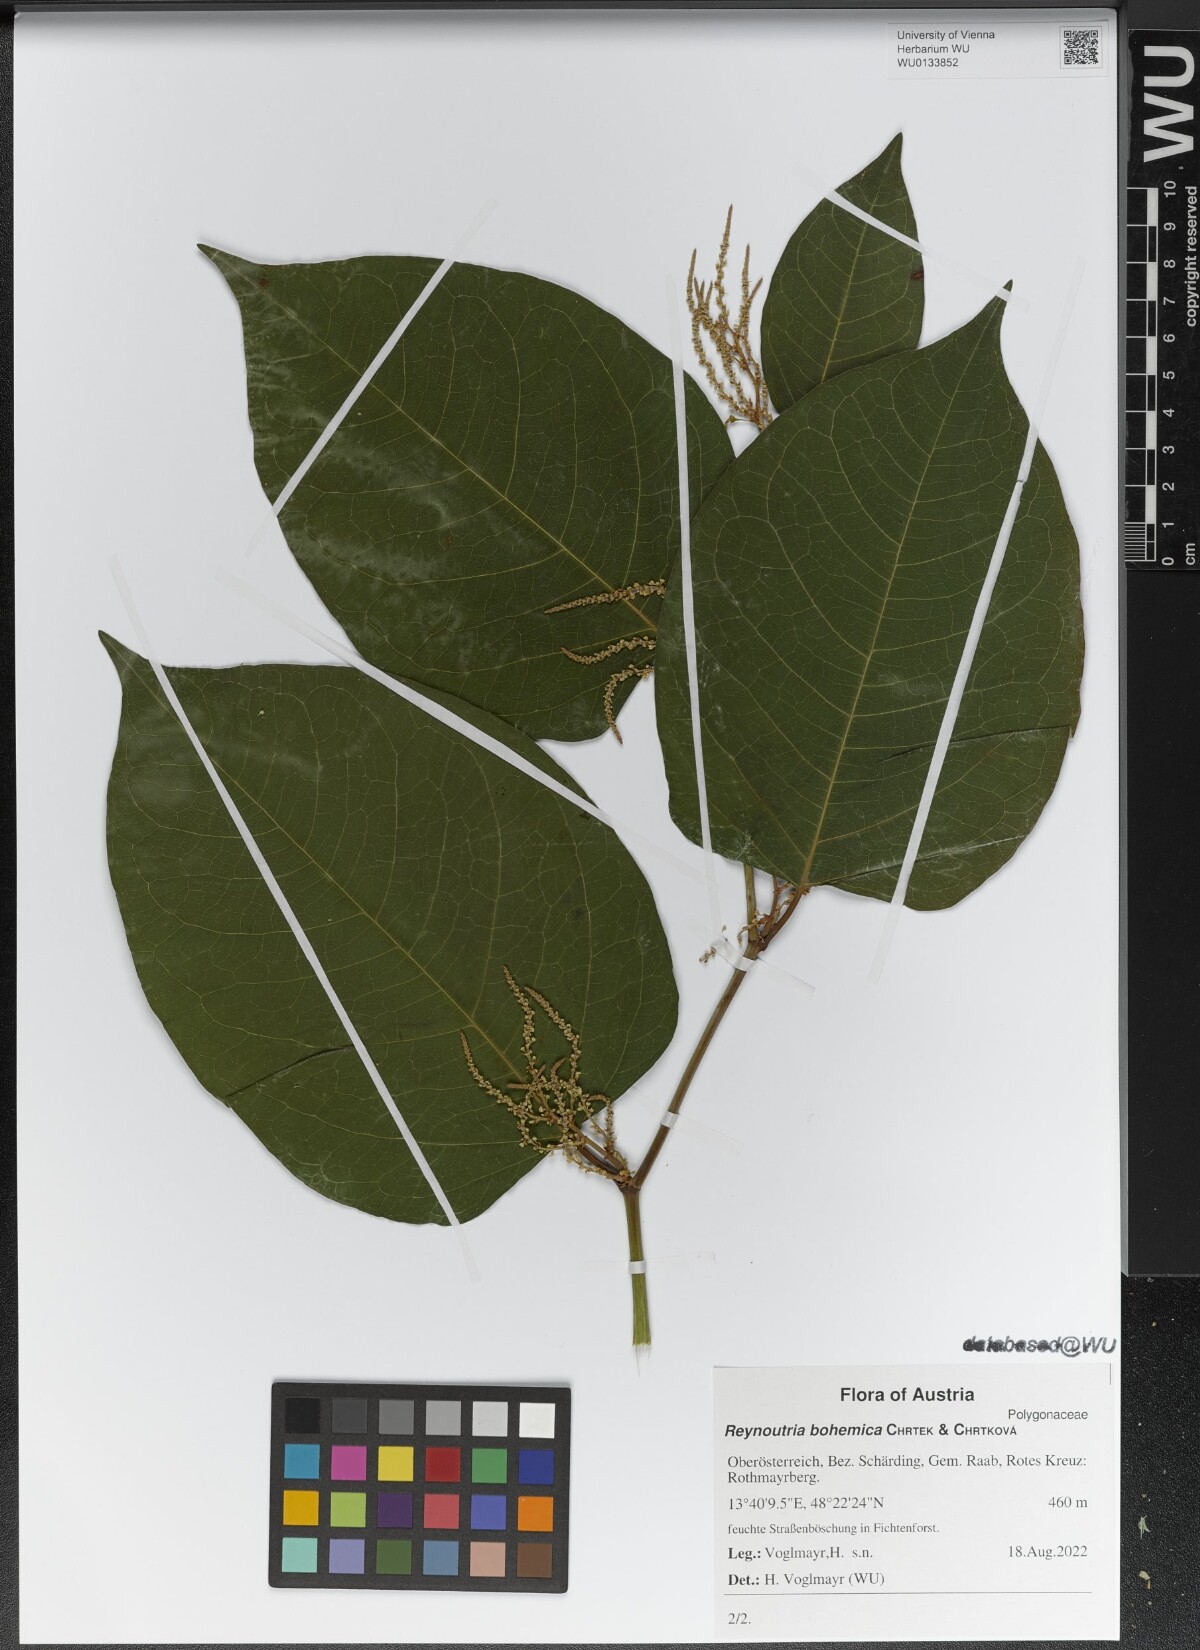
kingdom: Plantae
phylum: Tracheophyta
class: Magnoliopsida
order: Caryophyllales
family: Polygonaceae
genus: Reynoutria
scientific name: Reynoutria bohemica
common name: Bohemian knotweed
